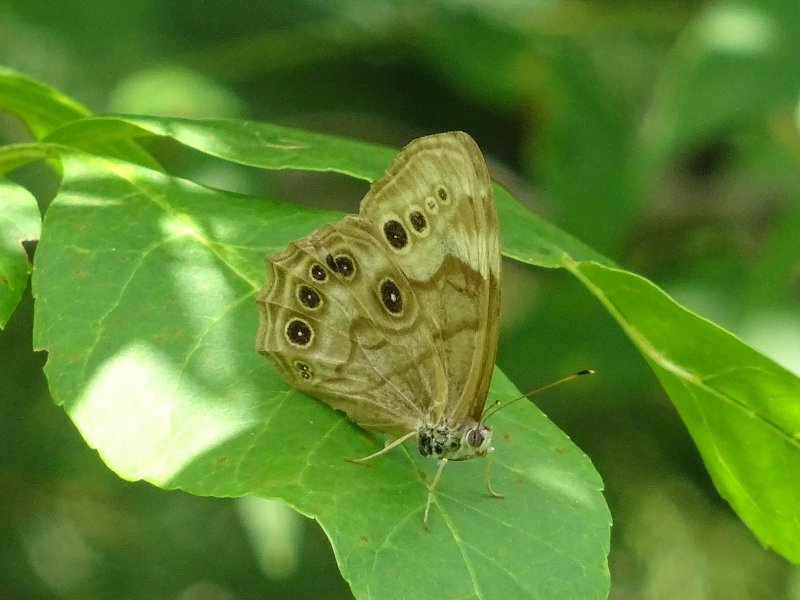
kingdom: Animalia
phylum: Arthropoda
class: Insecta
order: Lepidoptera
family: Nymphalidae
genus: Lethe
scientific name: Lethe anthedon
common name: Northern Pearly-Eye
